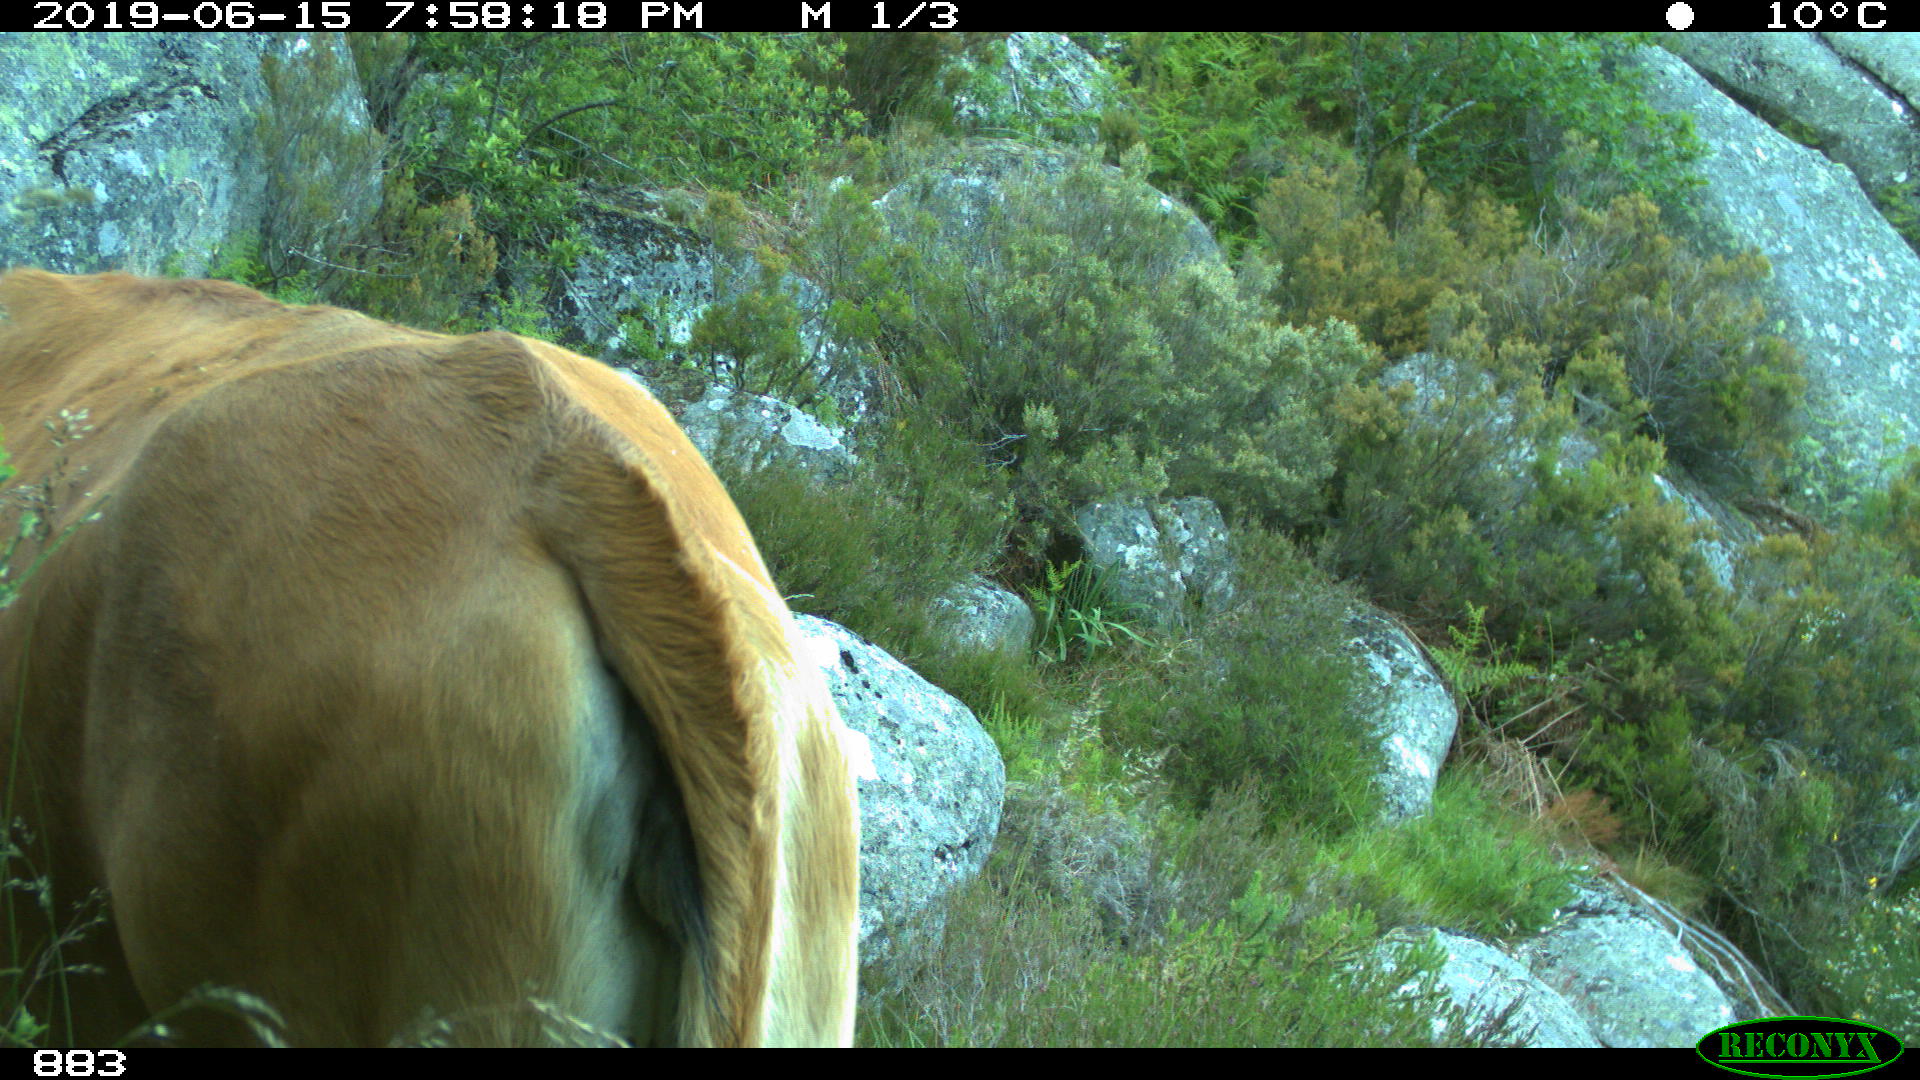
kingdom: Animalia
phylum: Chordata
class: Mammalia
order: Artiodactyla
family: Bovidae
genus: Bos
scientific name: Bos taurus
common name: Domesticated cattle
